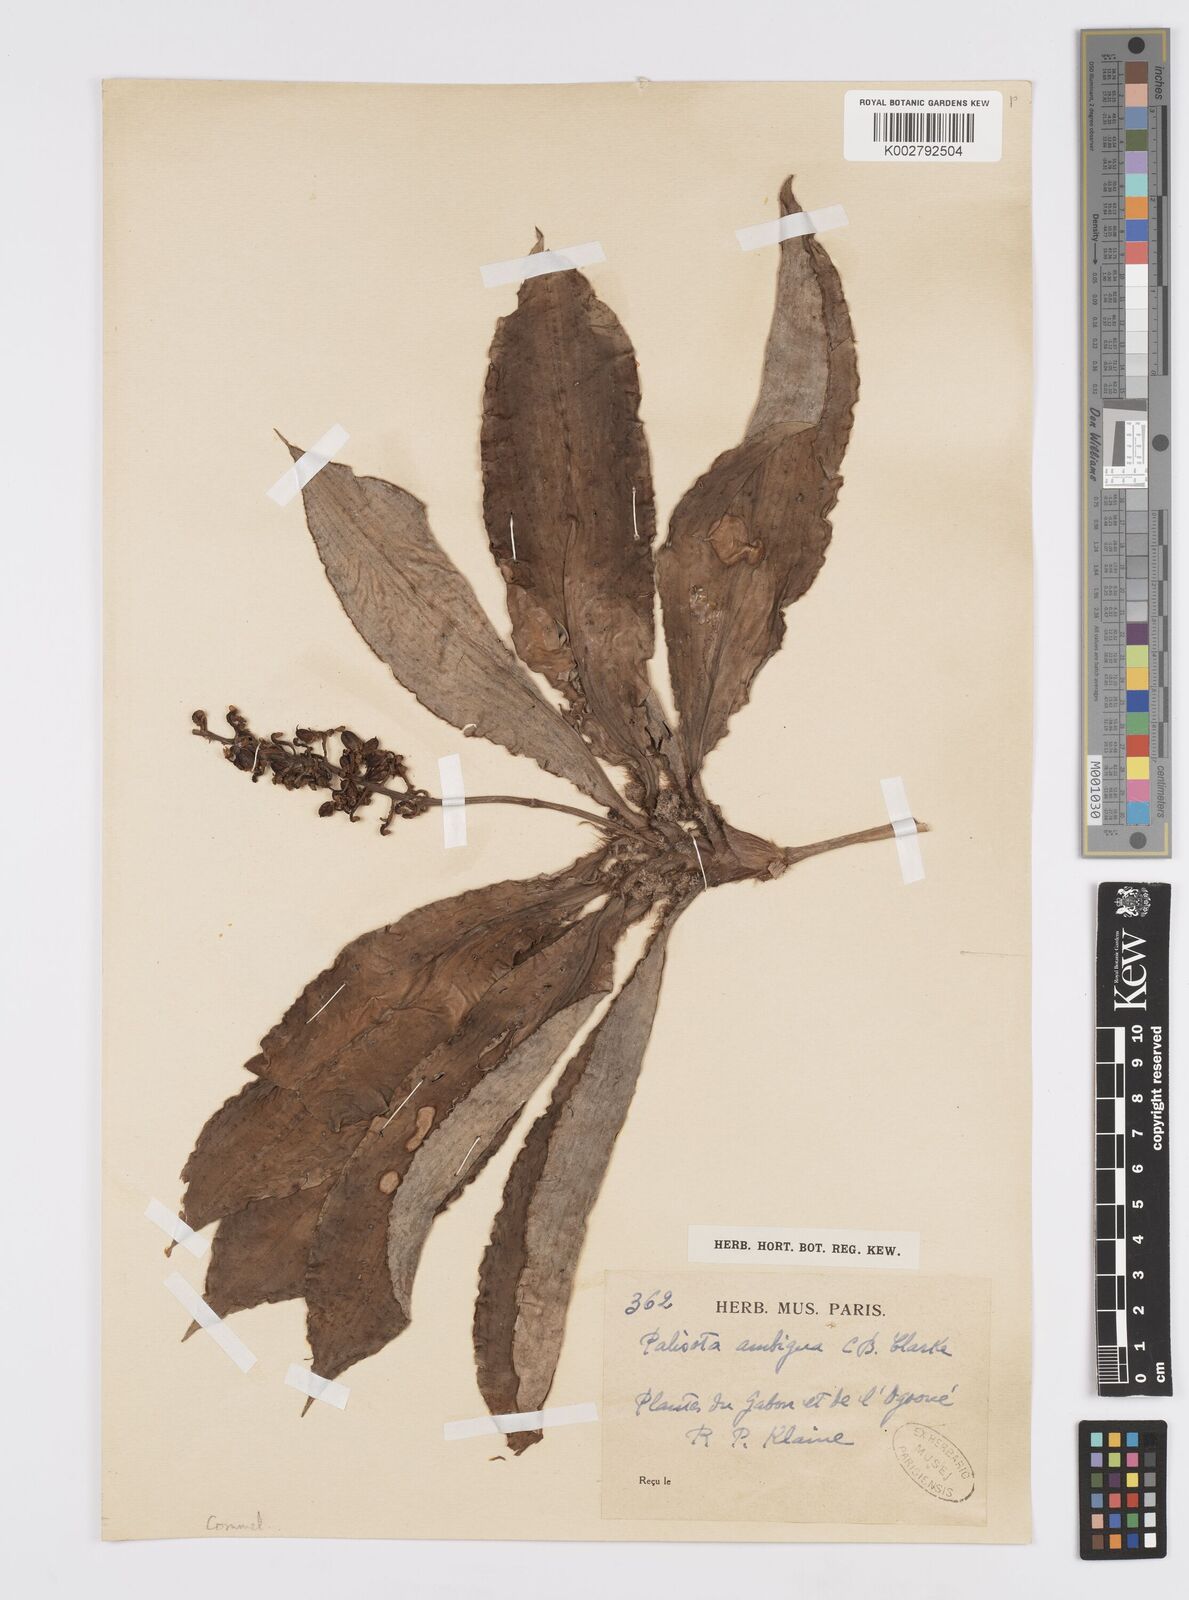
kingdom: Plantae
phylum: Tracheophyta
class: Liliopsida
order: Commelinales
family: Commelinaceae
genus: Palisota
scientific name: Palisota ambigua
